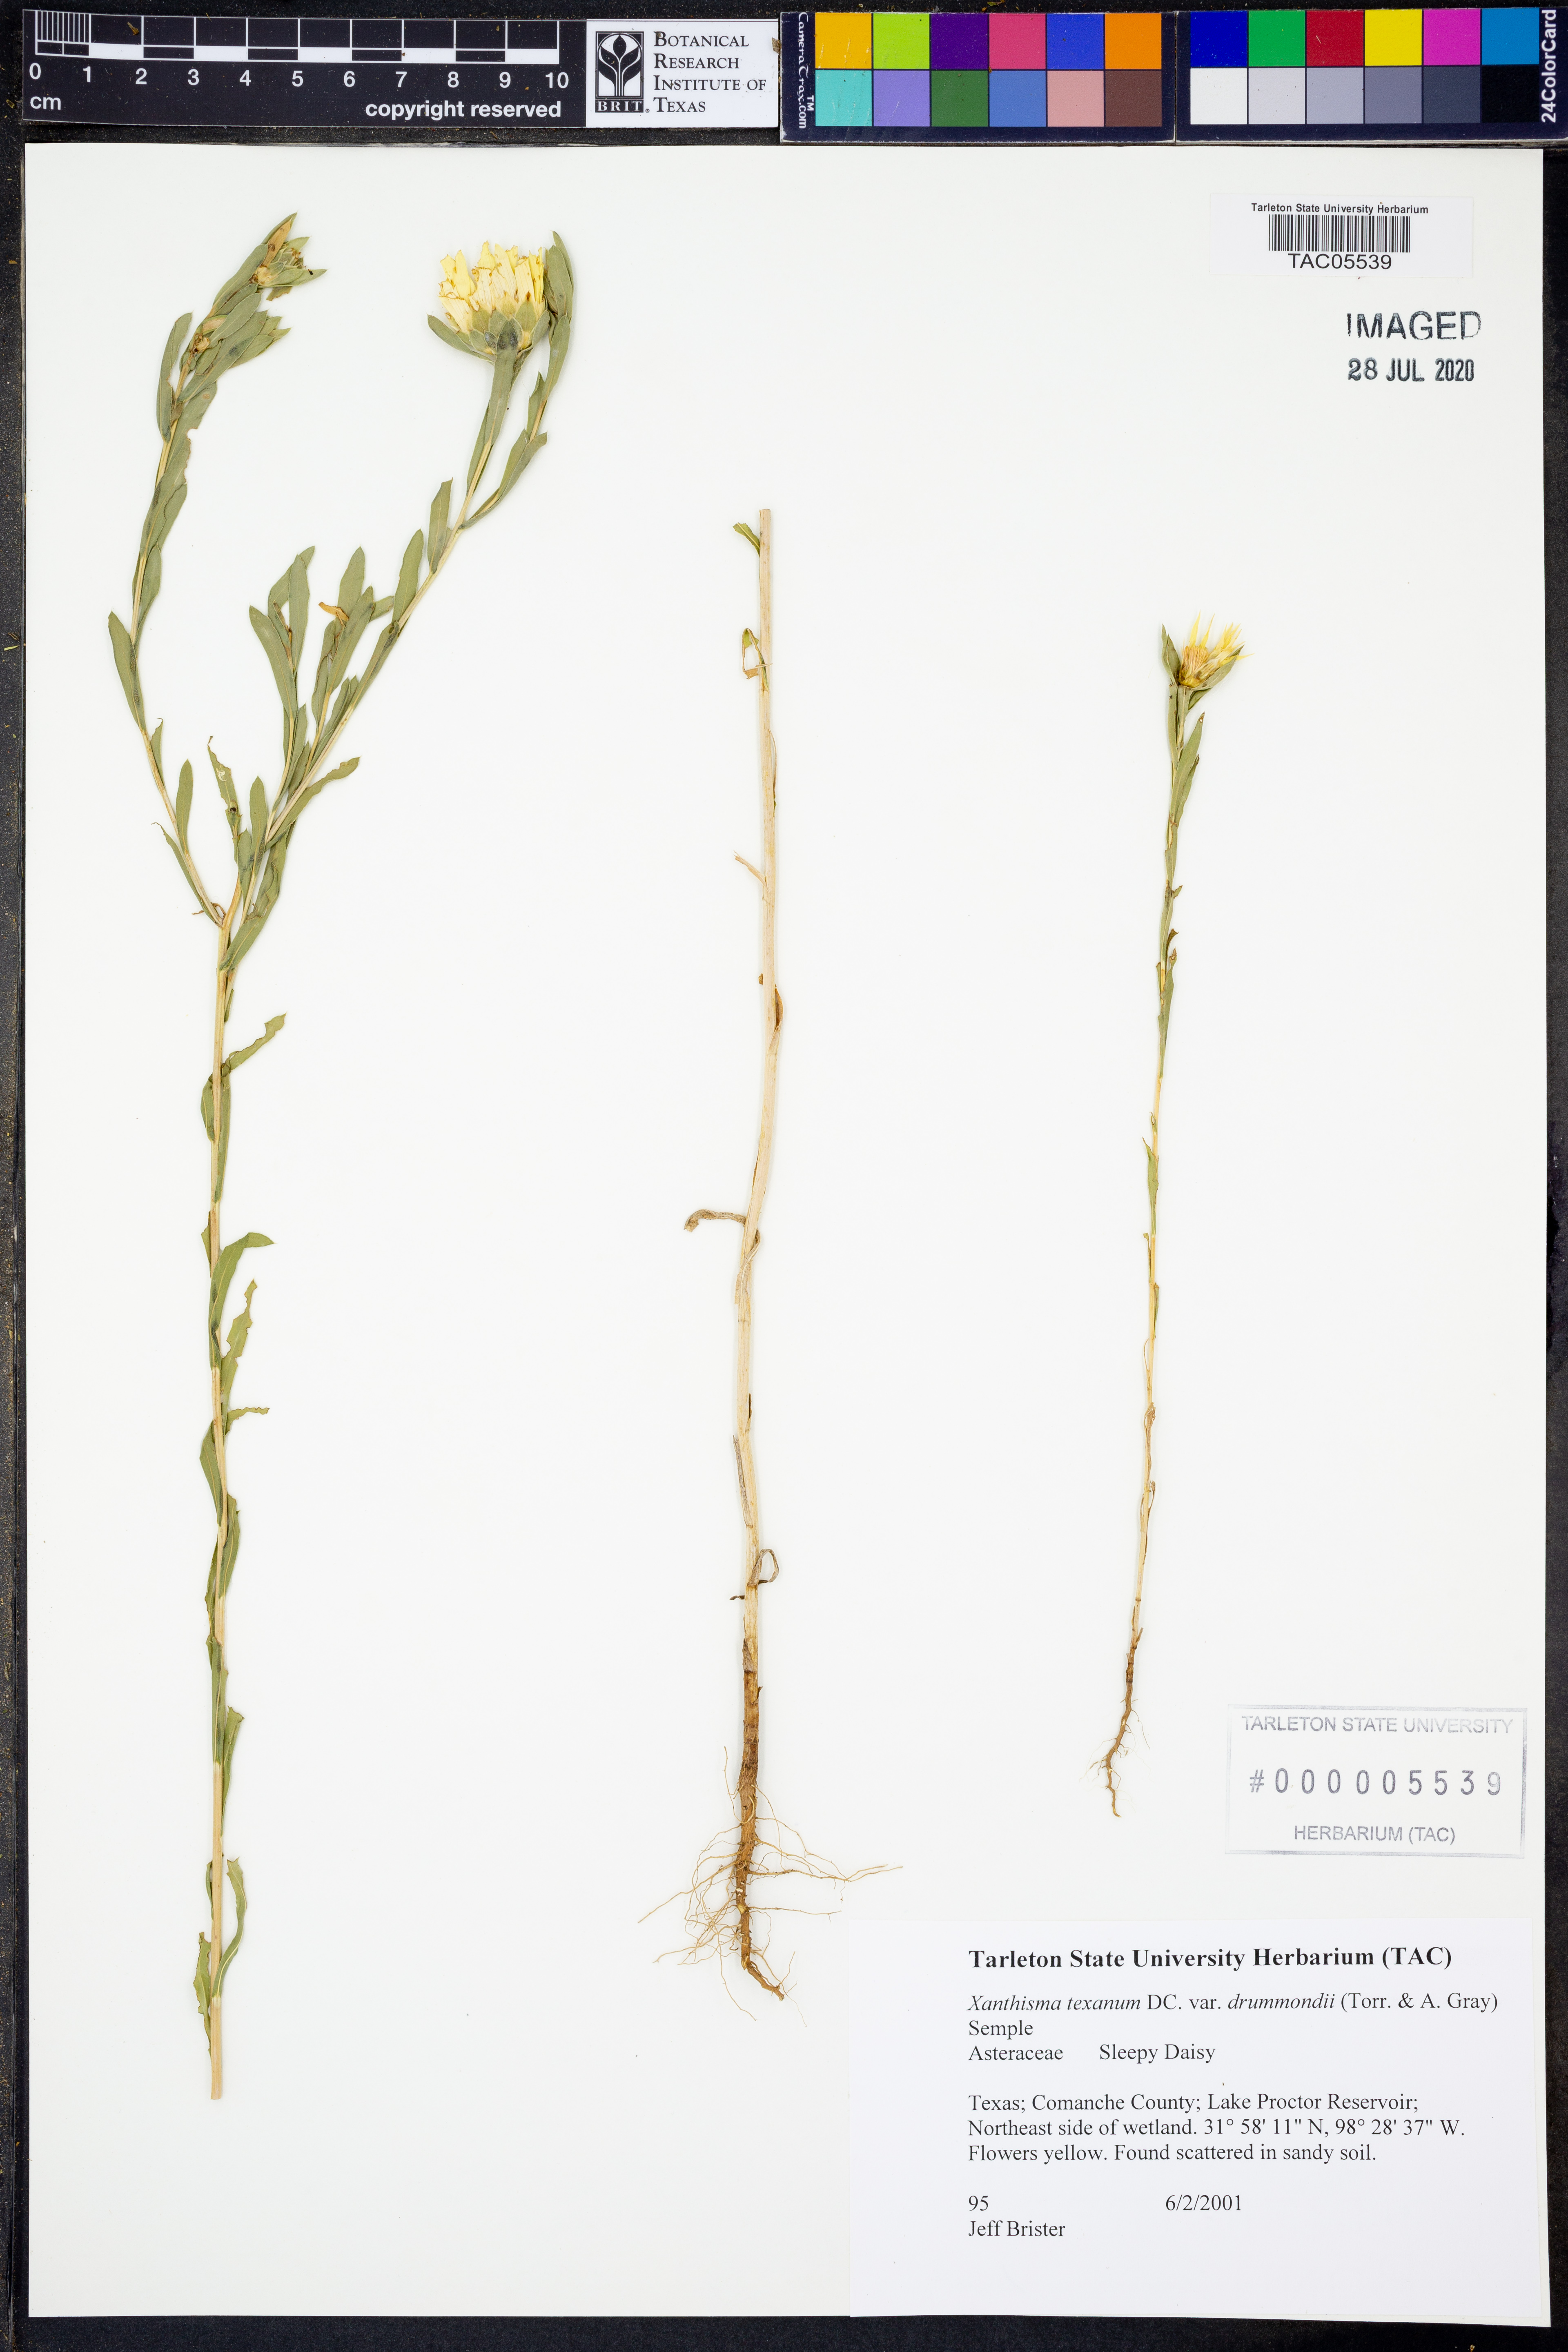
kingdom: Plantae
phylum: Tracheophyta
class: Magnoliopsida
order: Asterales
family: Asteraceae
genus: Xanthisma
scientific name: Xanthisma texanum
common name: Texas sleepy daisy
